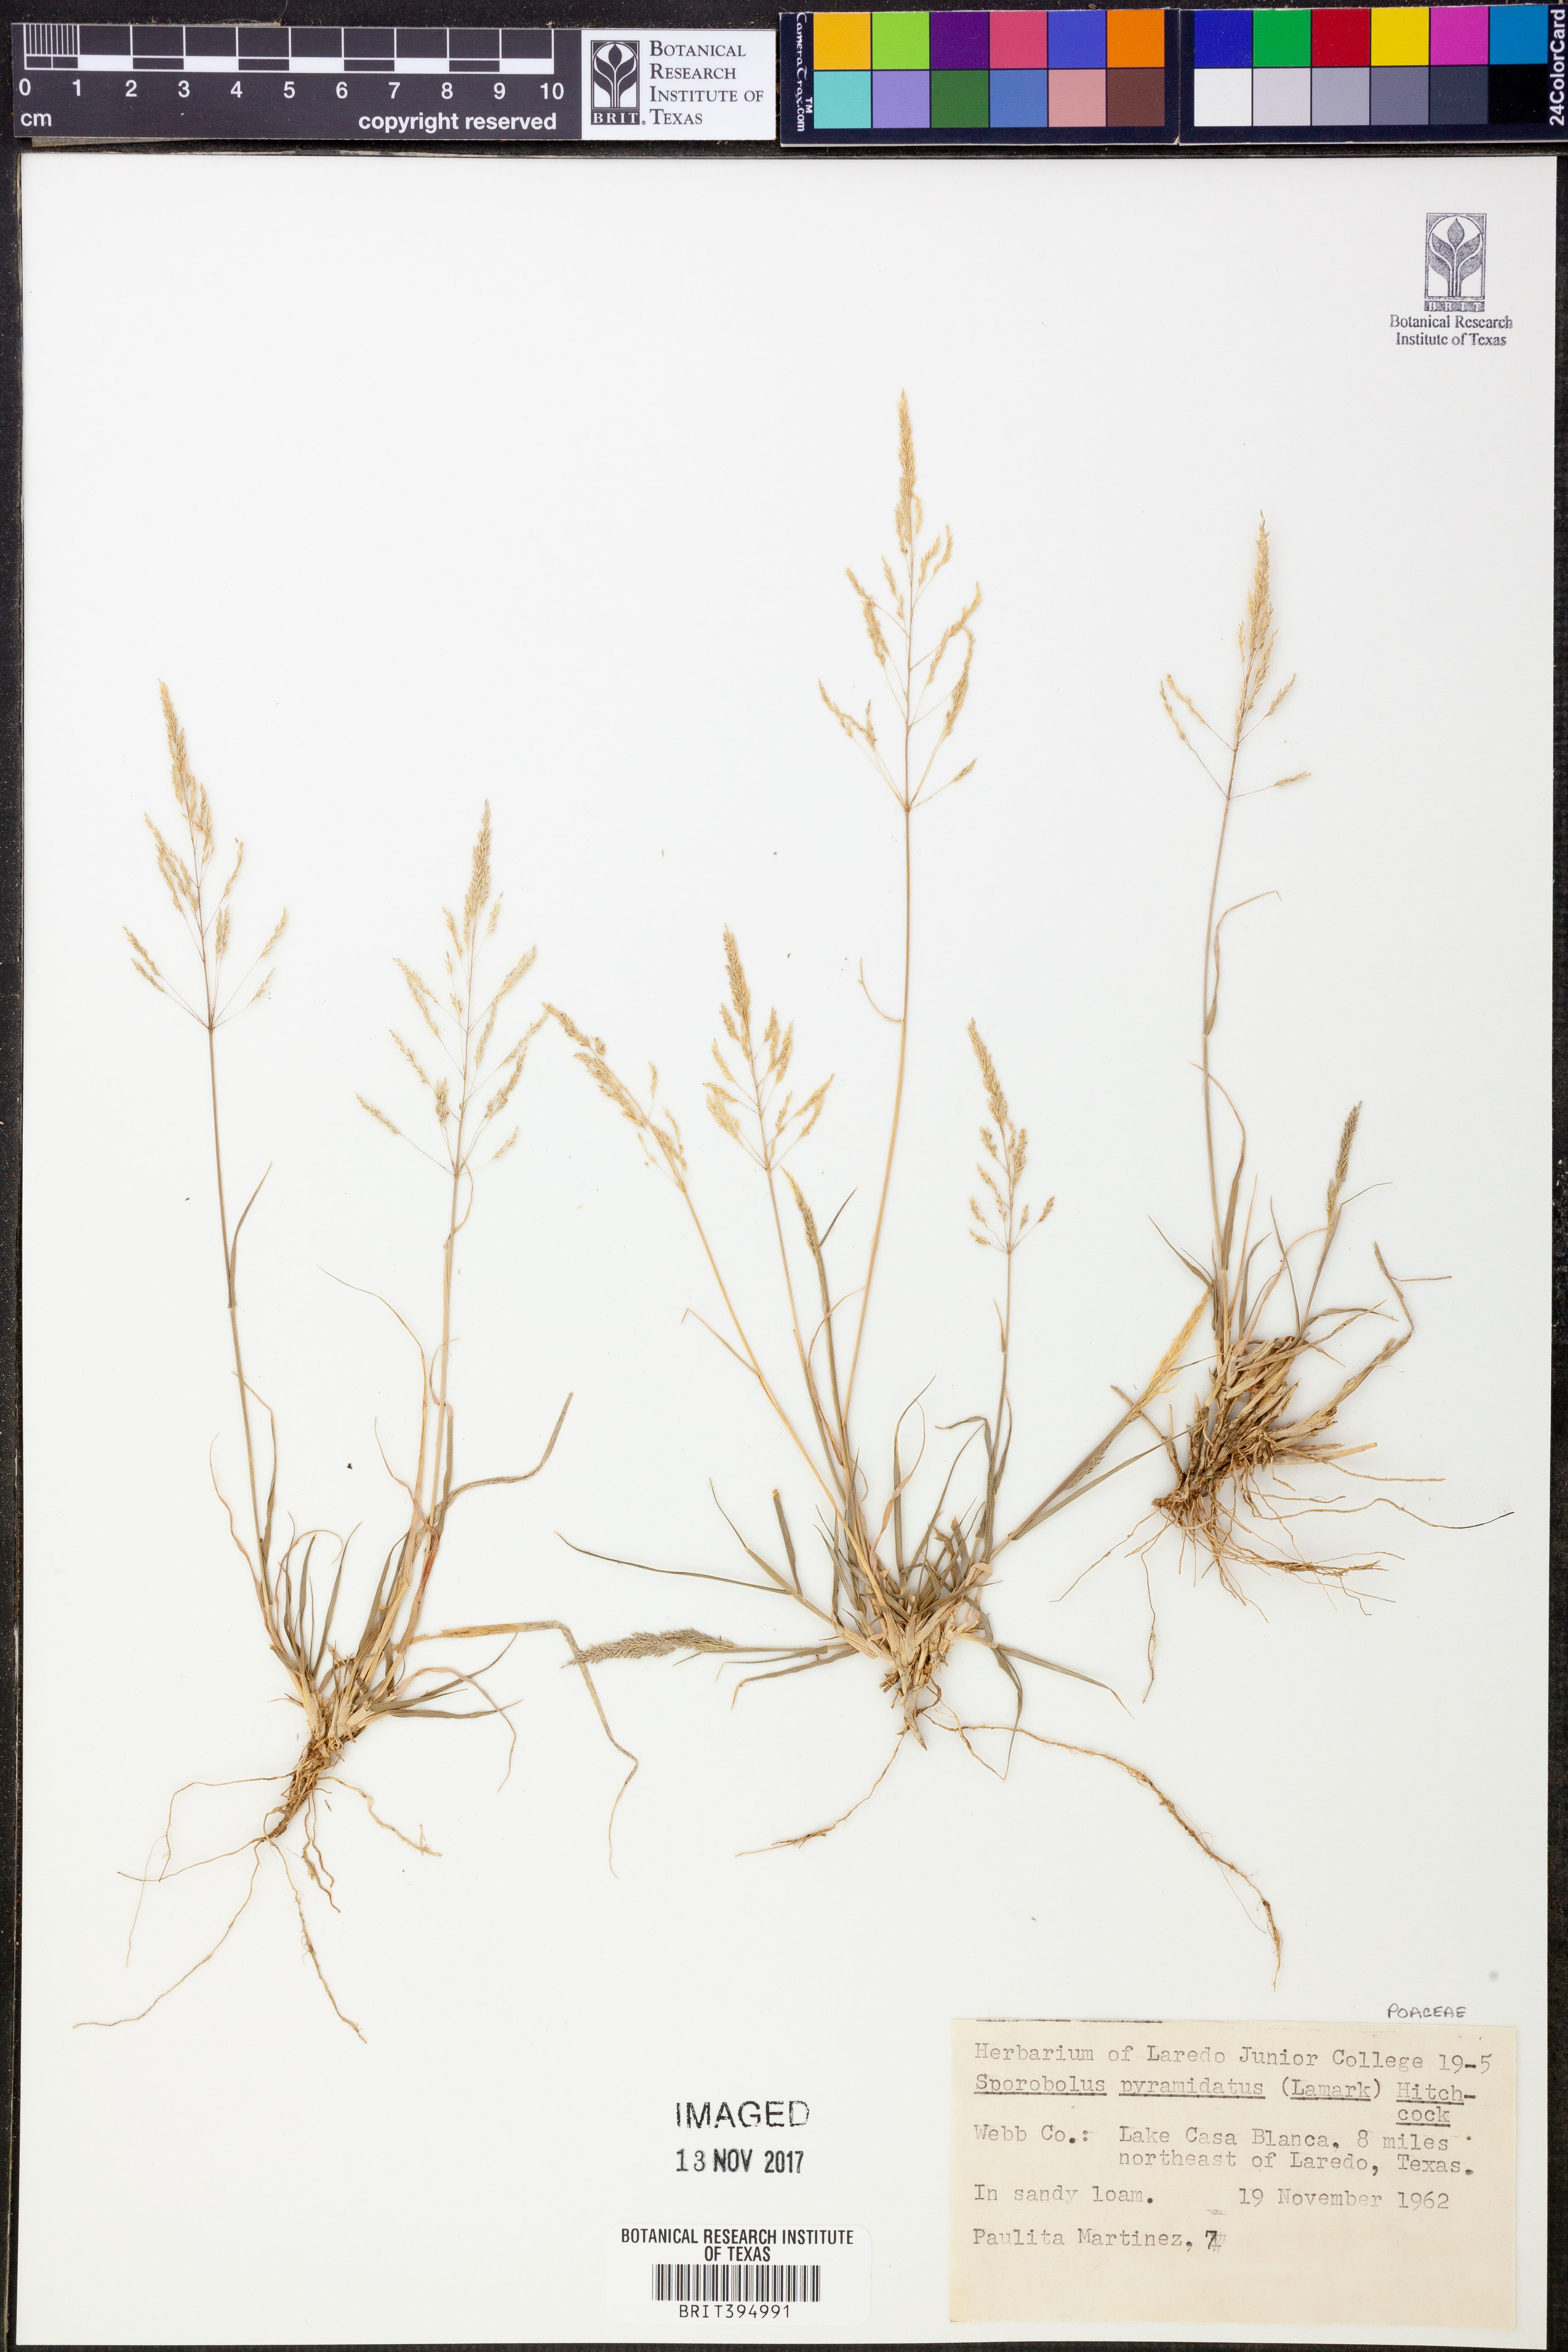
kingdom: Plantae
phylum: Tracheophyta
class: Liliopsida
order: Poales
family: Poaceae
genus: Sporobolus
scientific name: Sporobolus pyramidatus
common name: Whorled dropseed
